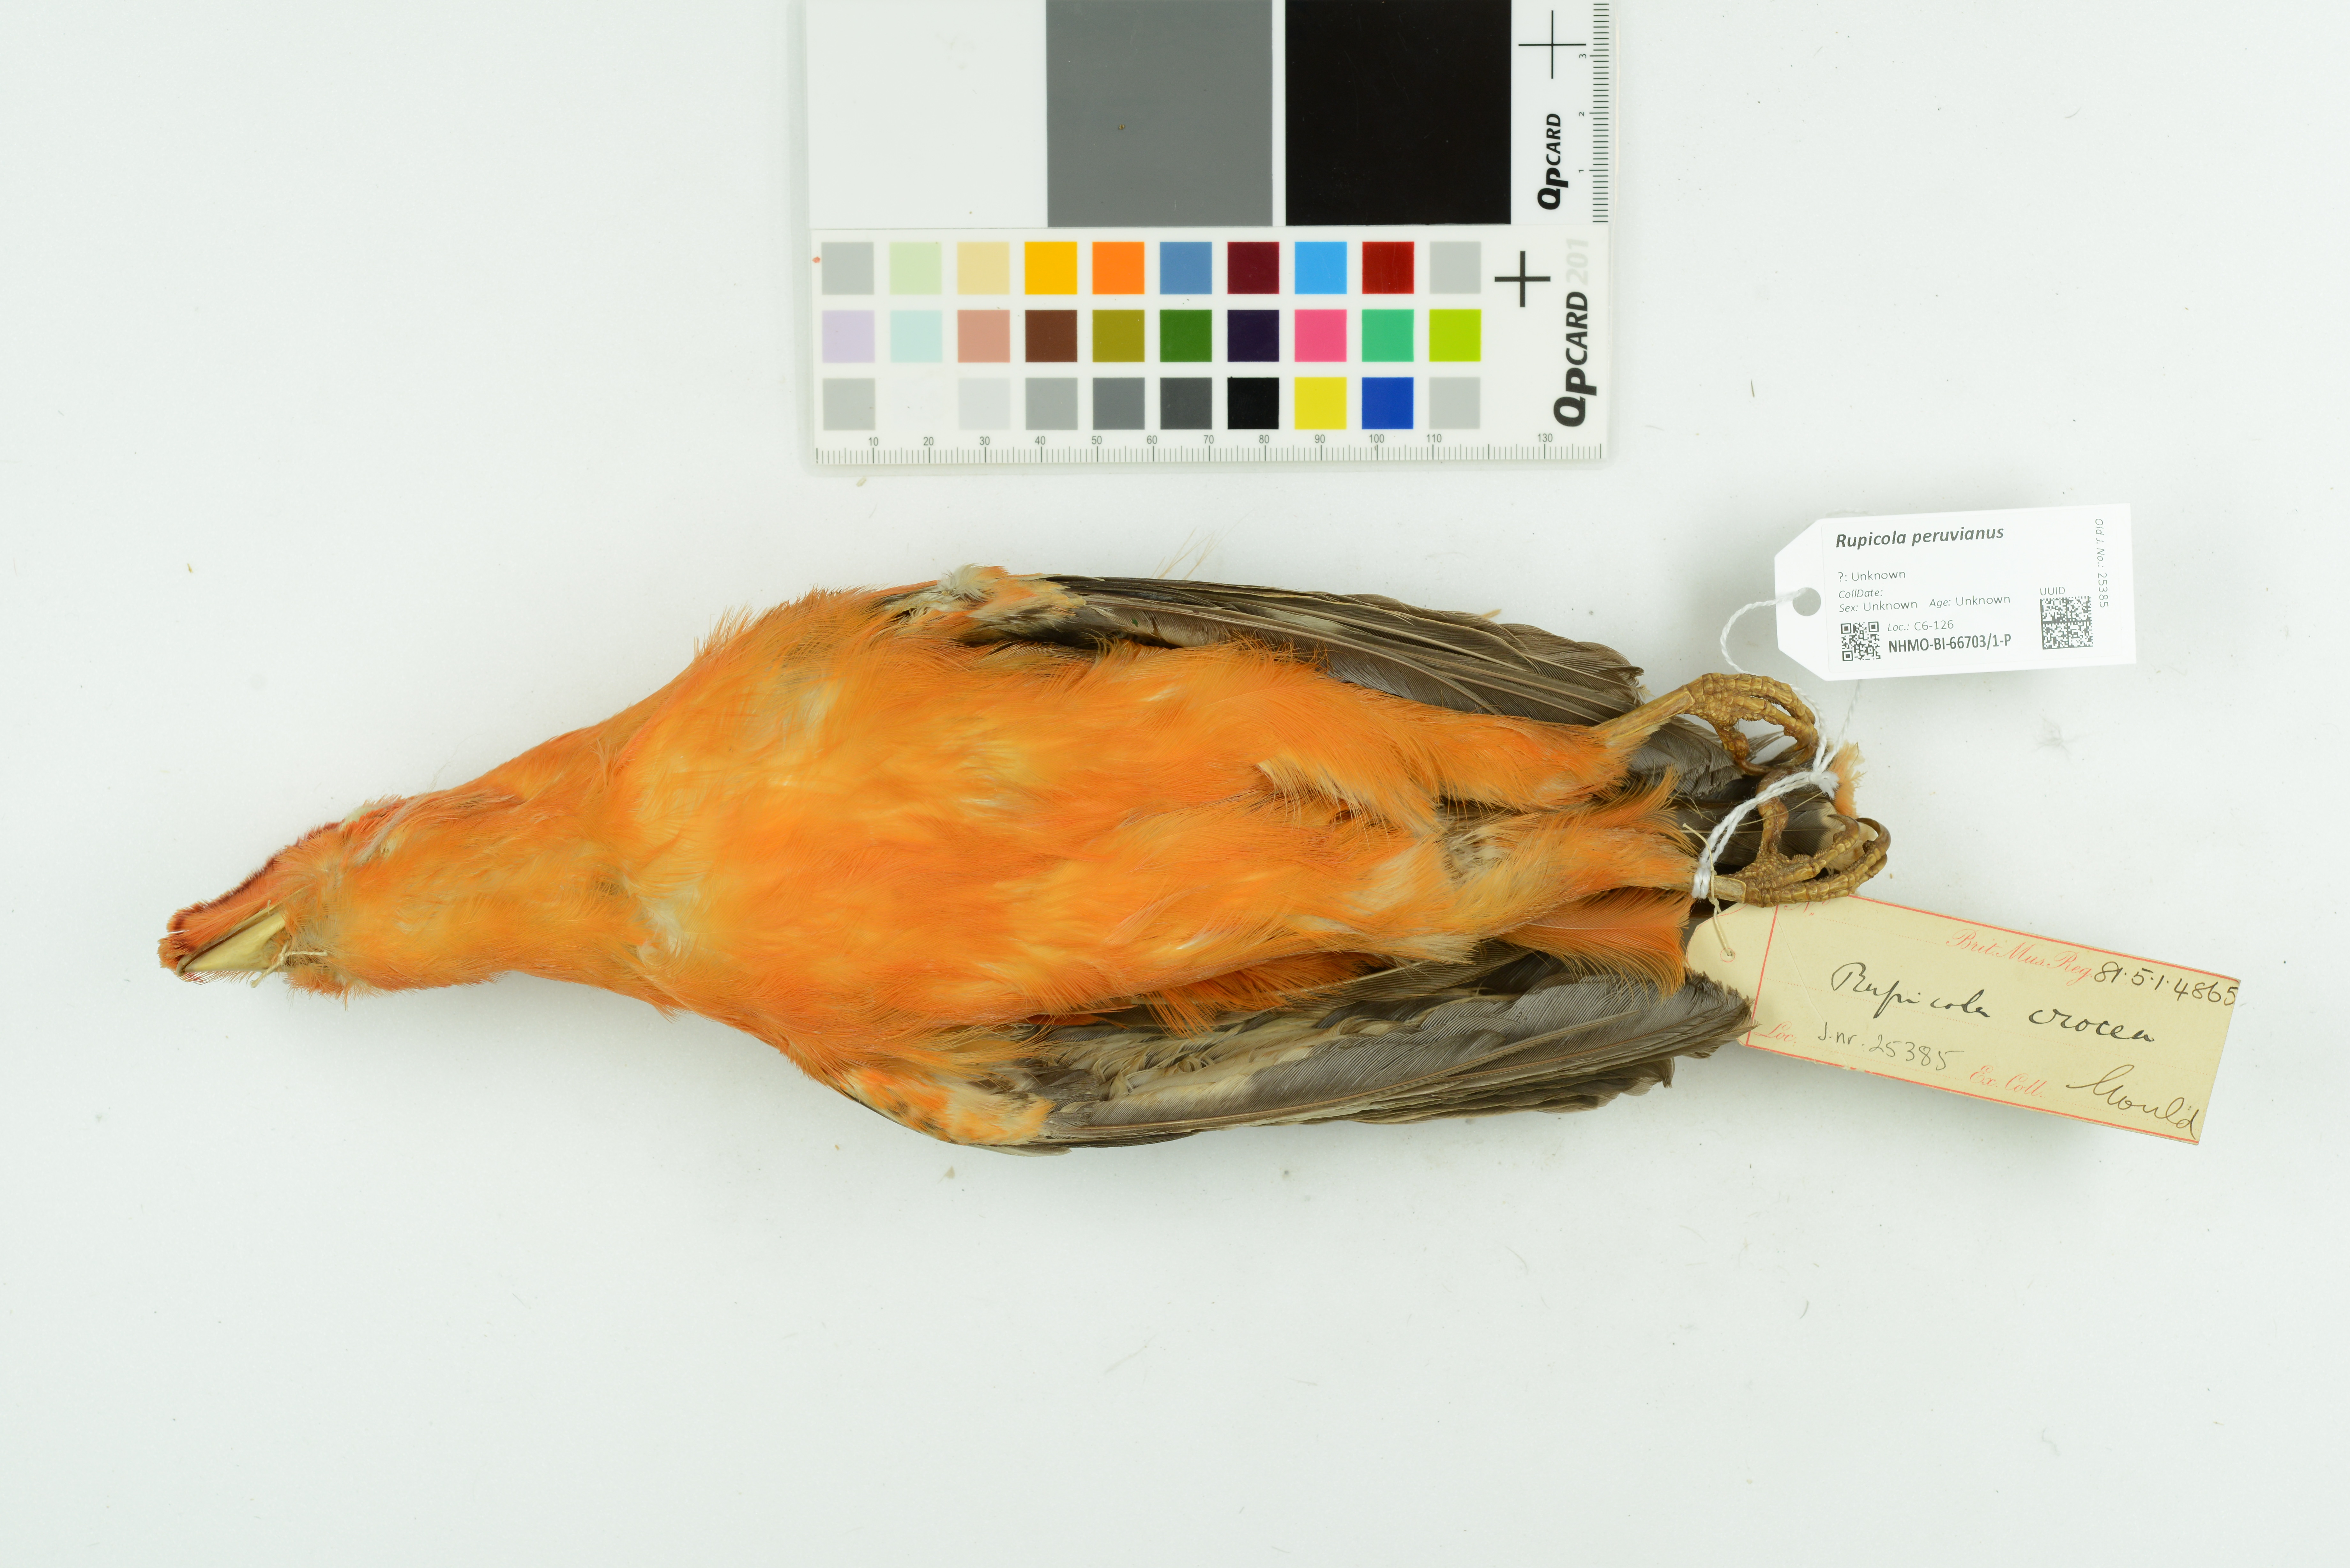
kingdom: Animalia
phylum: Chordata
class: Aves
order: Passeriformes
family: Cotingidae
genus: Rupicola
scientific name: Rupicola peruvianus
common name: Andean cock-of-the-rock
